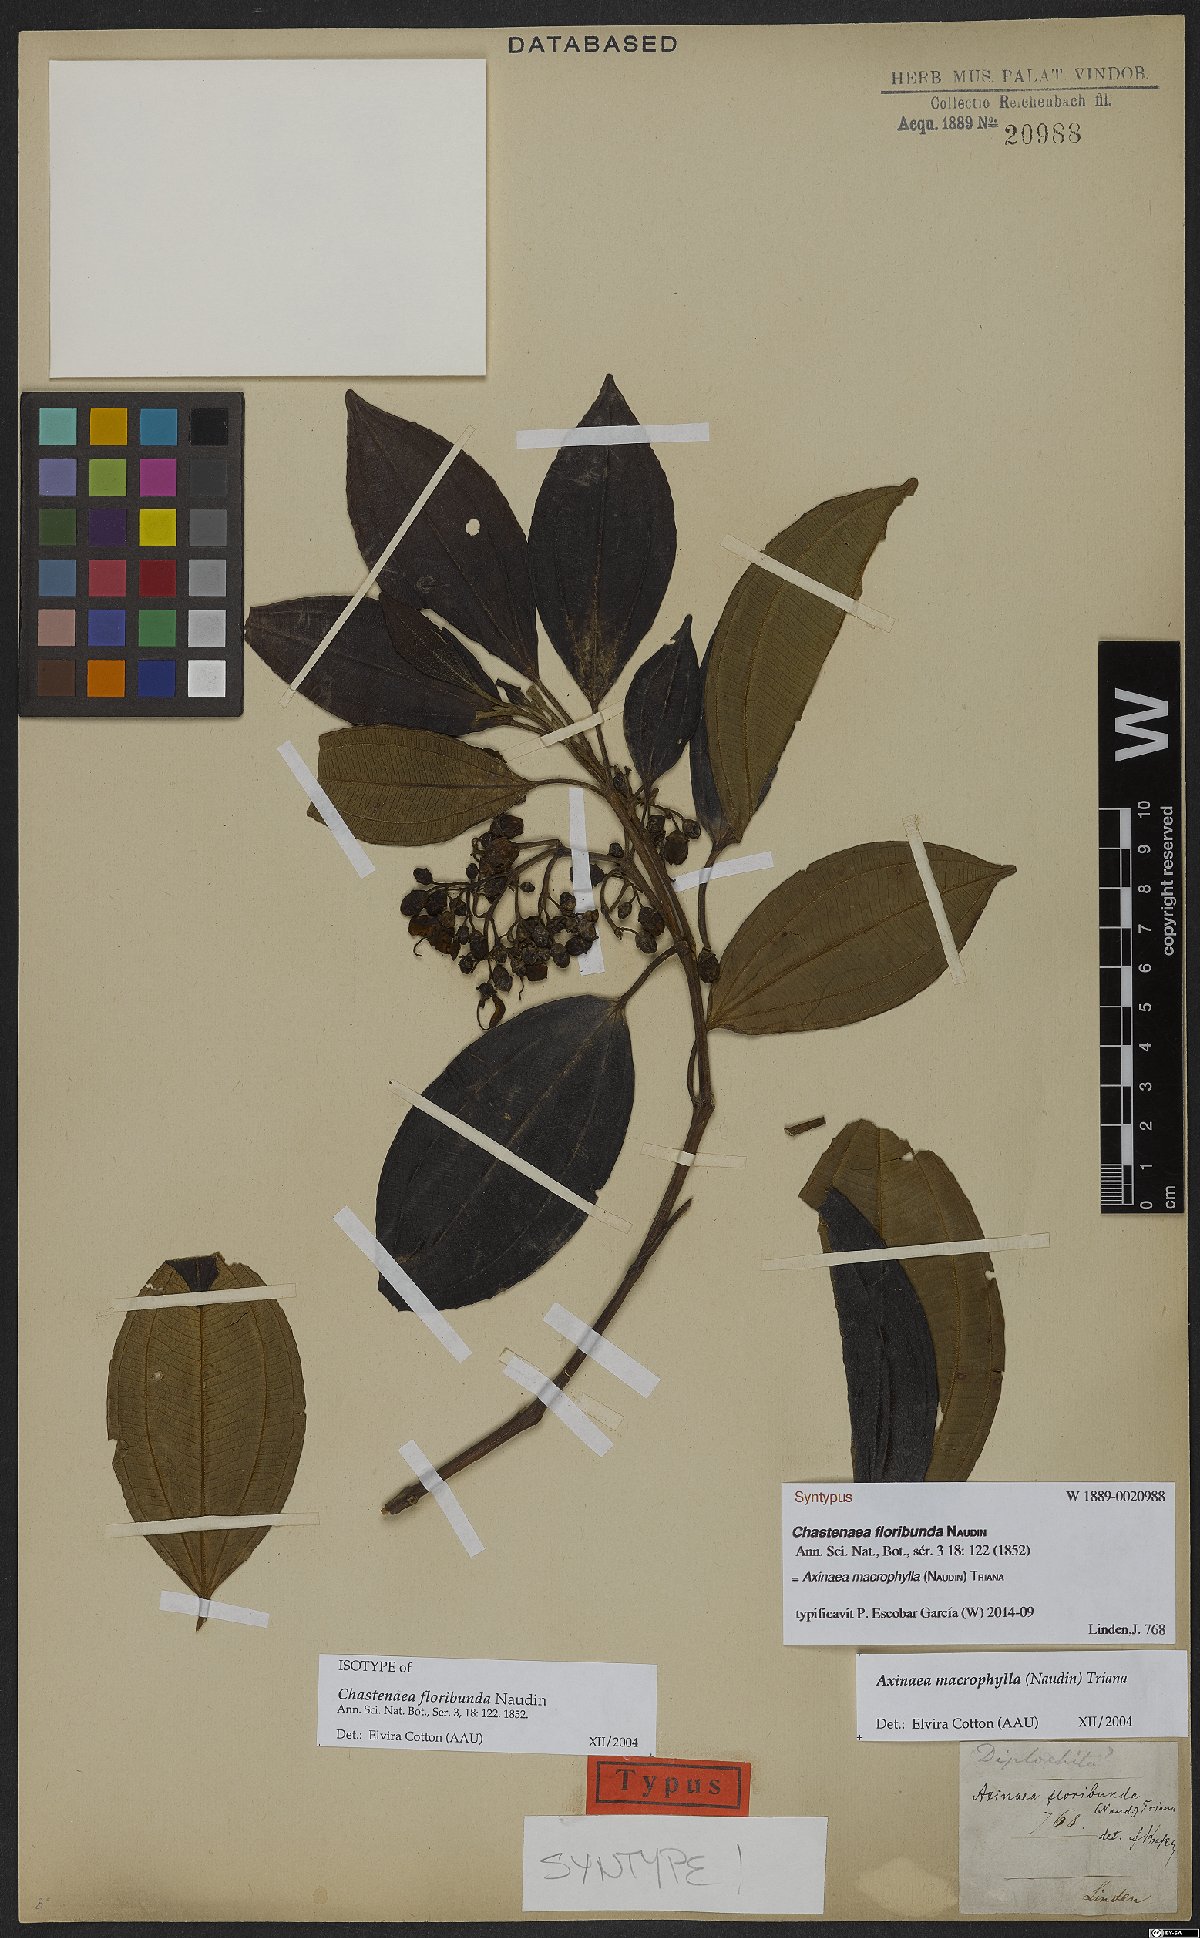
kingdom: Plantae
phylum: Tracheophyta
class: Magnoliopsida
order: Myrtales
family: Melastomataceae
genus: Axinaea
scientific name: Axinaea macrophylla
